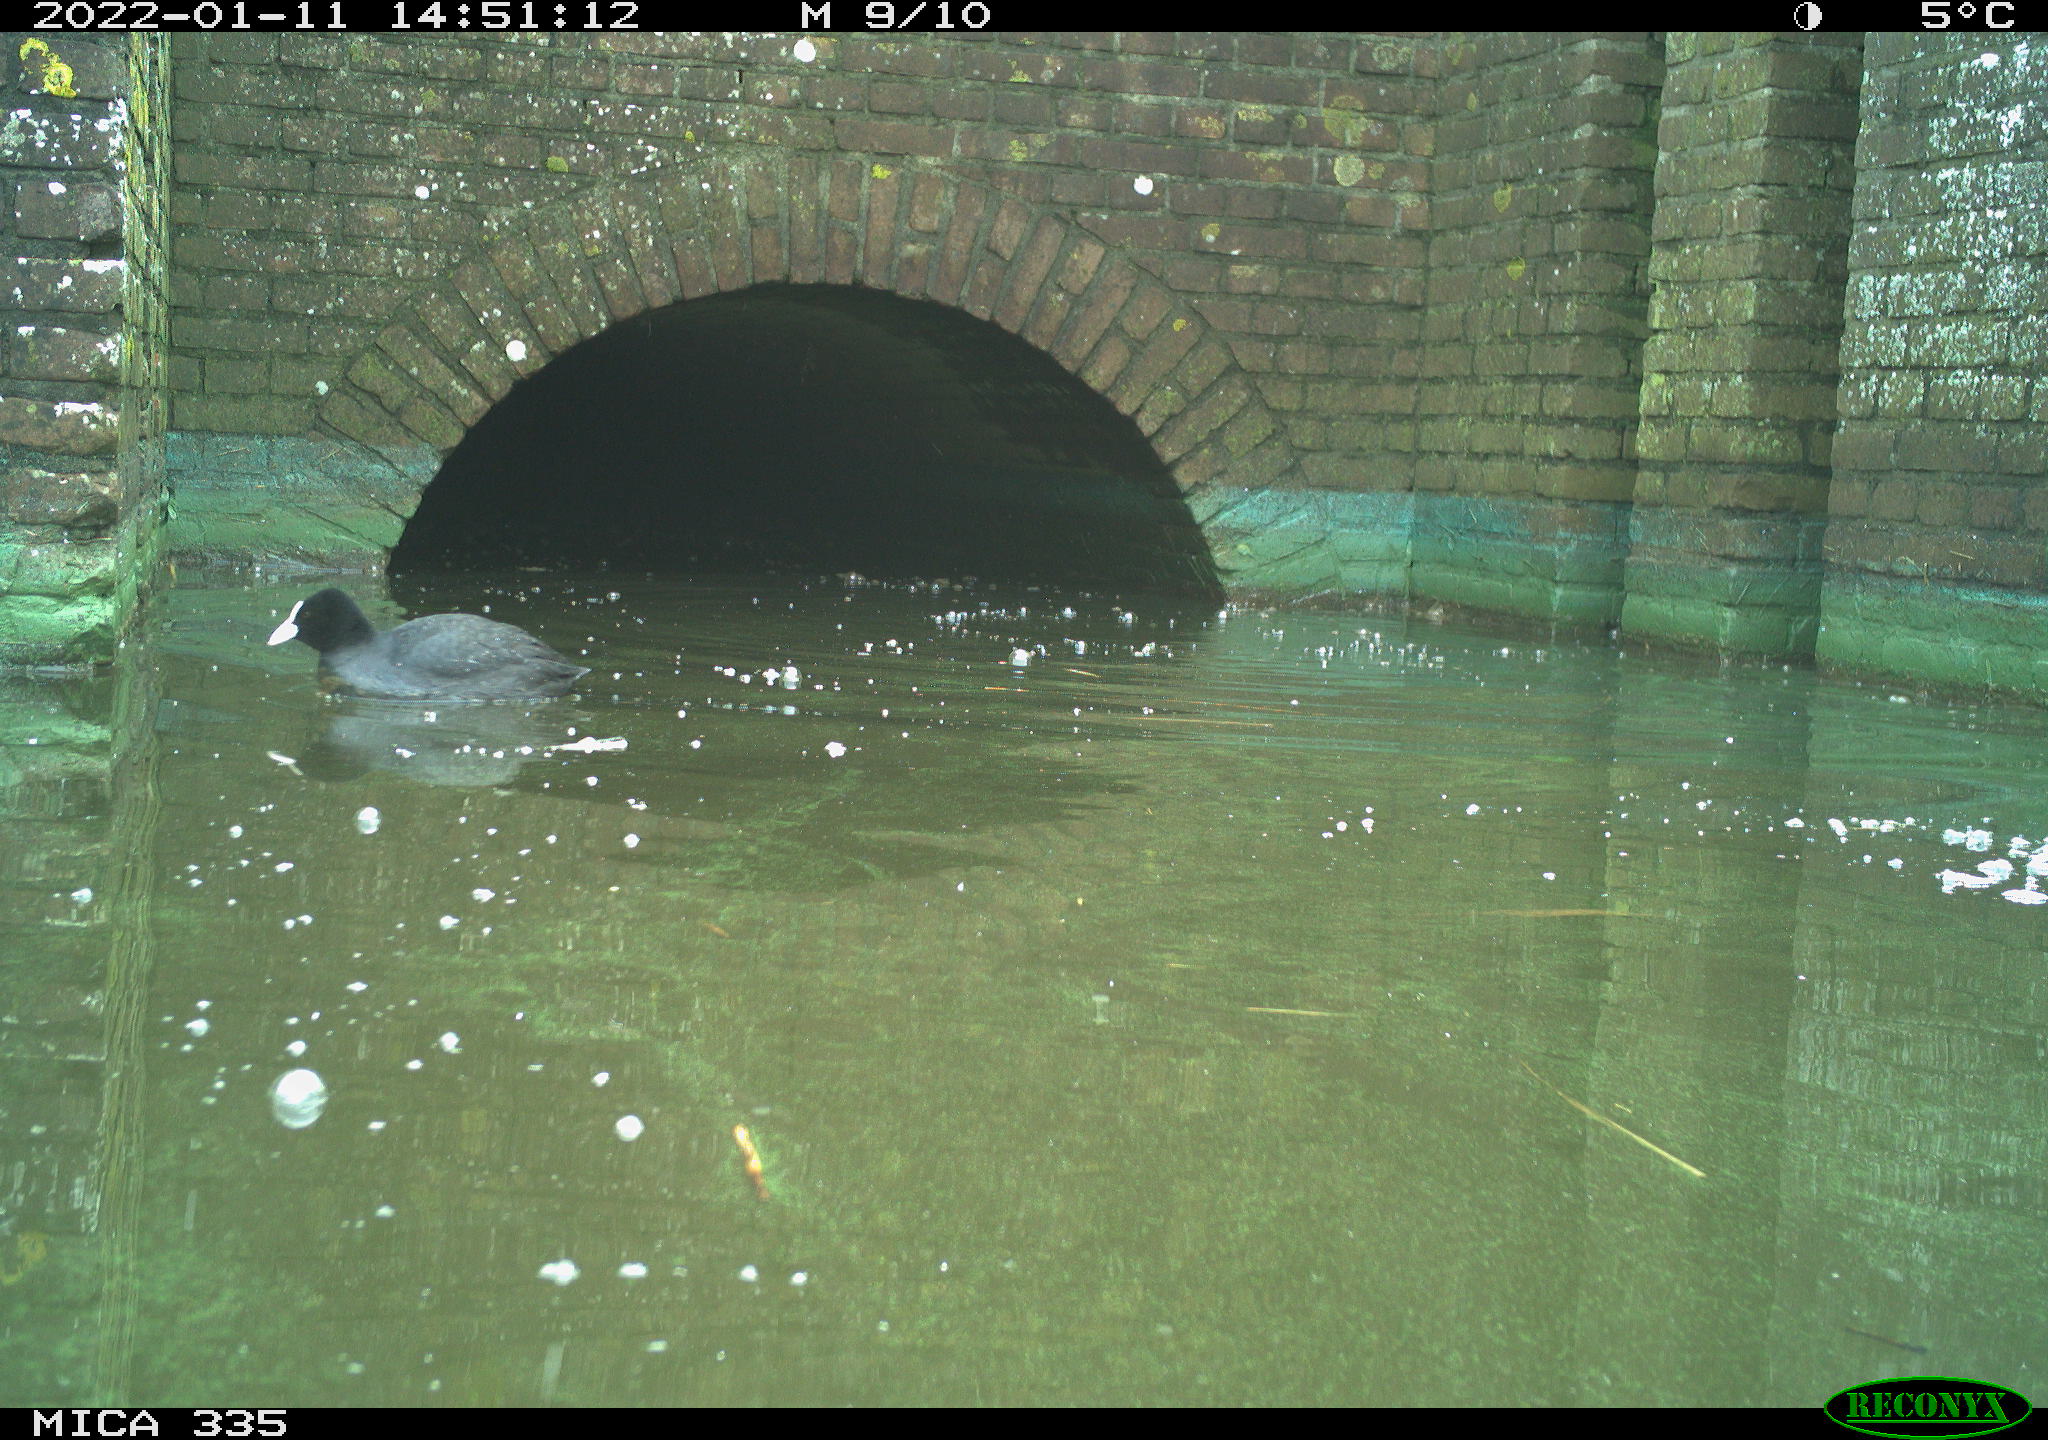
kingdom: Animalia
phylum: Chordata
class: Aves
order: Gruiformes
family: Rallidae
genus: Fulica
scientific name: Fulica atra
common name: Eurasian coot
